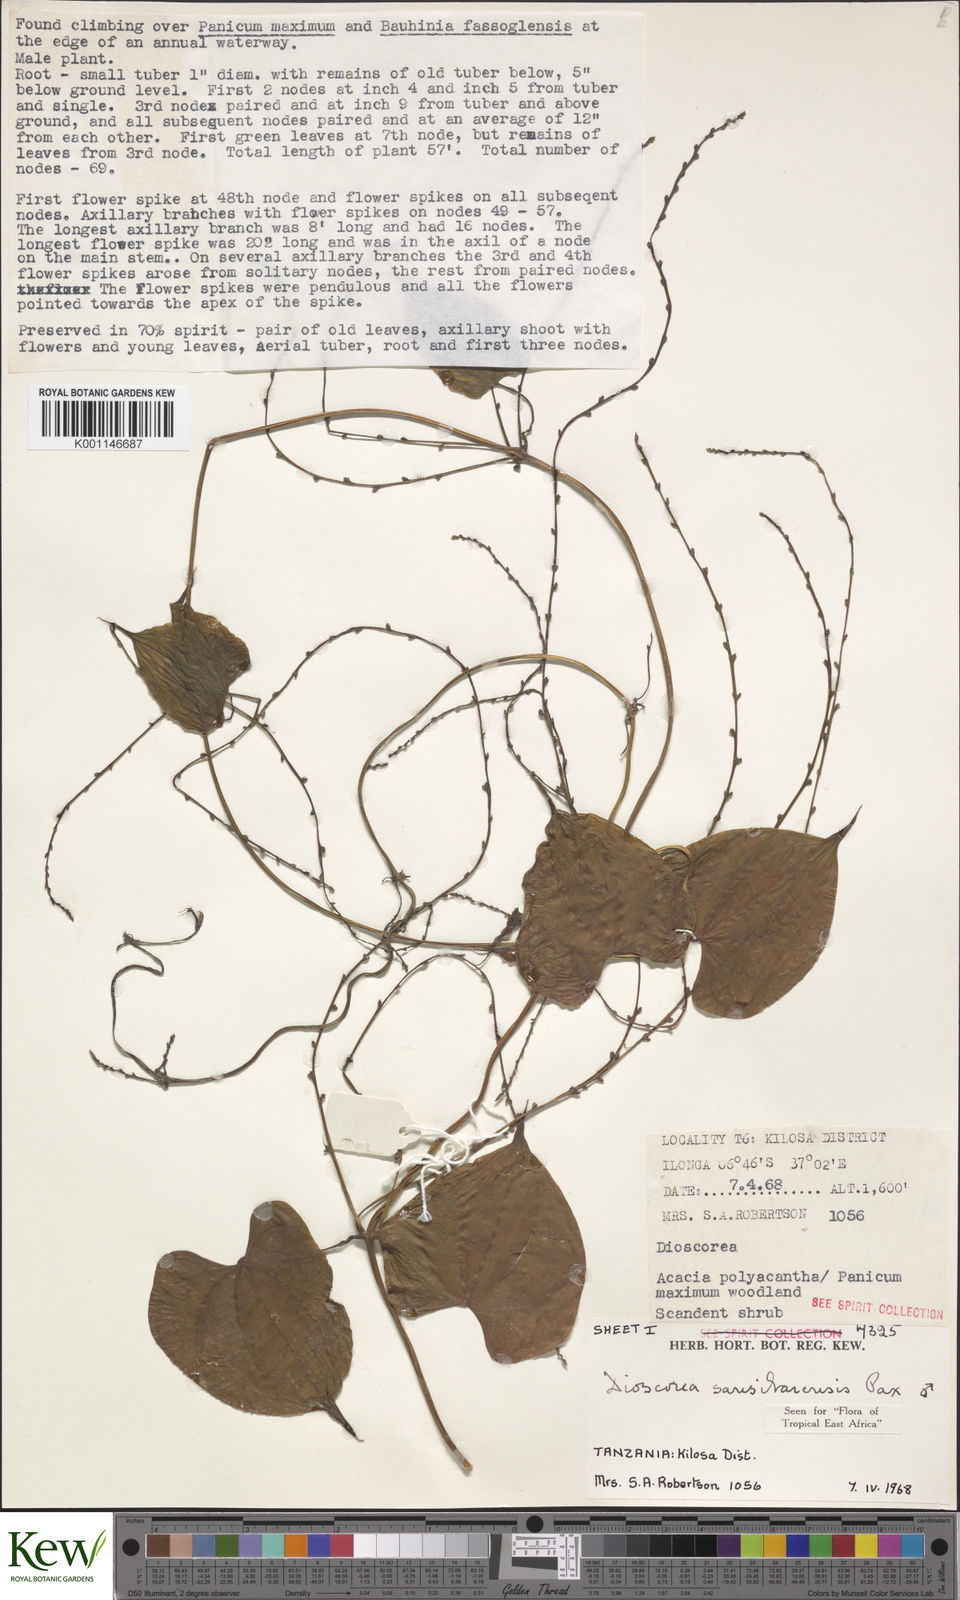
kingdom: Plantae
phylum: Tracheophyta
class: Liliopsida
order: Dioscoreales
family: Dioscoreaceae
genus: Dioscorea
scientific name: Dioscorea sansibarensis
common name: Zanzibar yam
